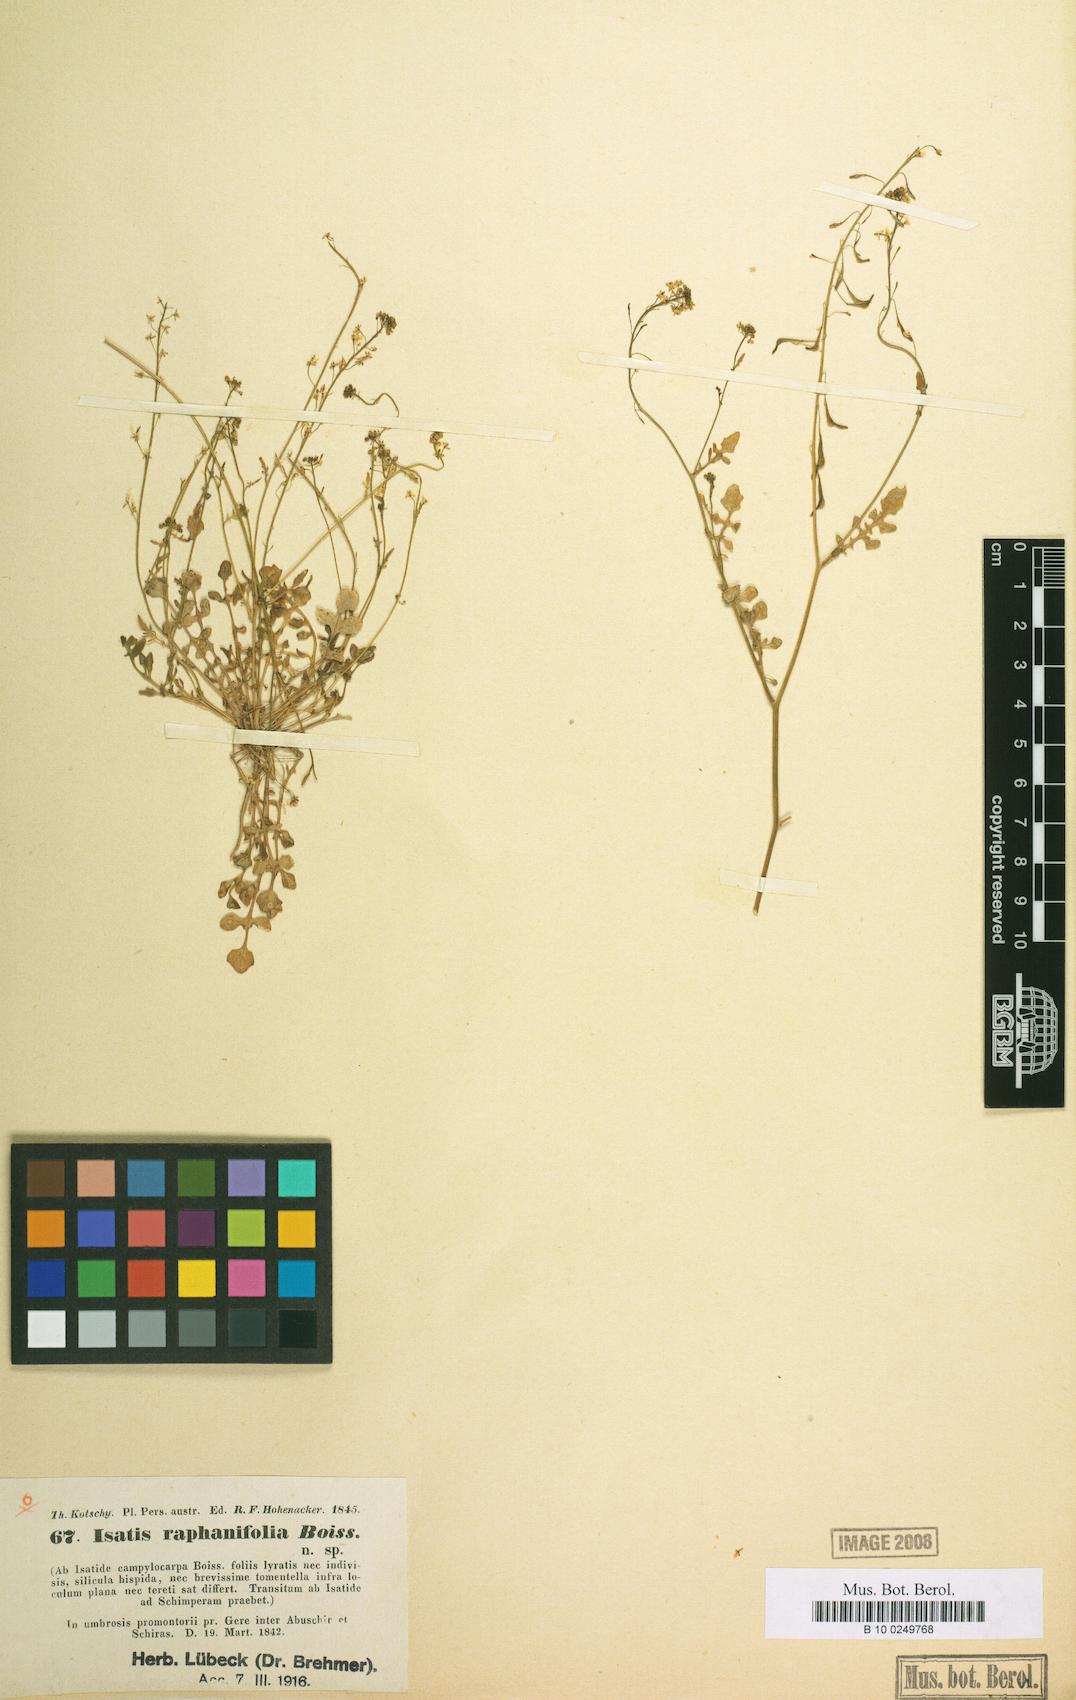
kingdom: Plantae
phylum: Tracheophyta
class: Magnoliopsida
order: Brassicales
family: Brassicaceae
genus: Isatis
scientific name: Isatis raphanifolia
